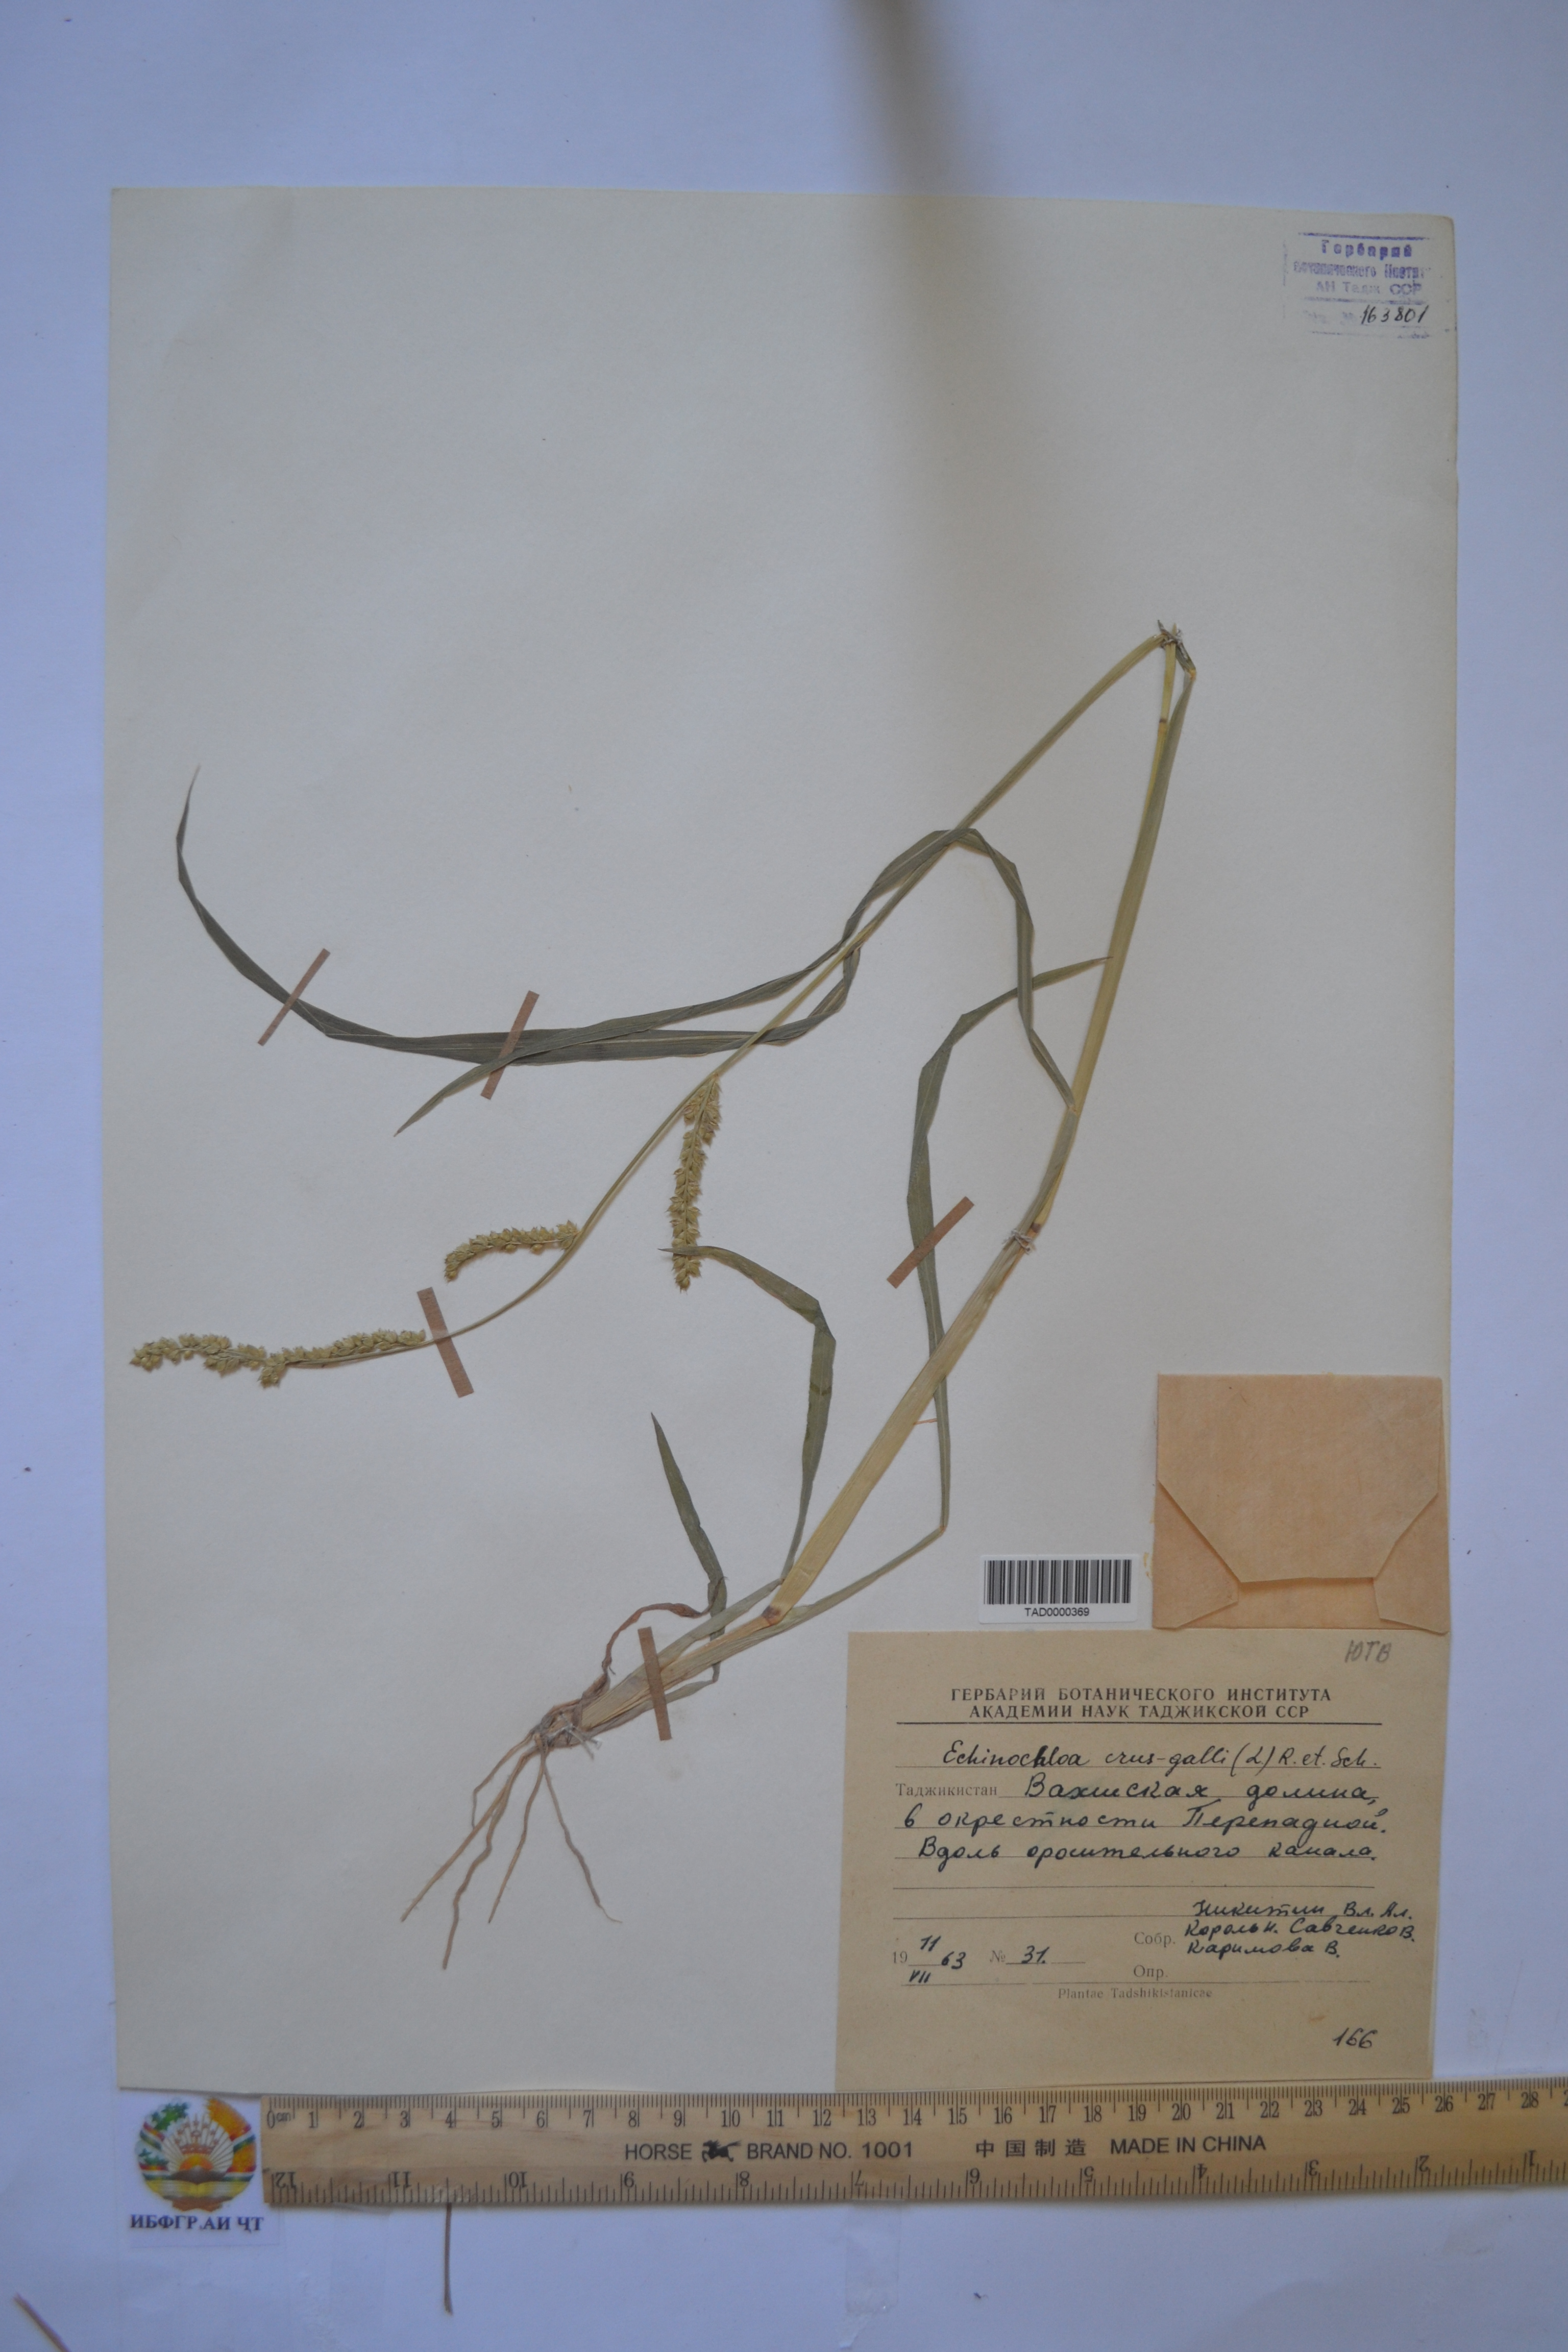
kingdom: Plantae
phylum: Tracheophyta
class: Liliopsida
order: Poales
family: Poaceae
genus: Echinochloa
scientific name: Echinochloa crus-galli
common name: Cockspur
